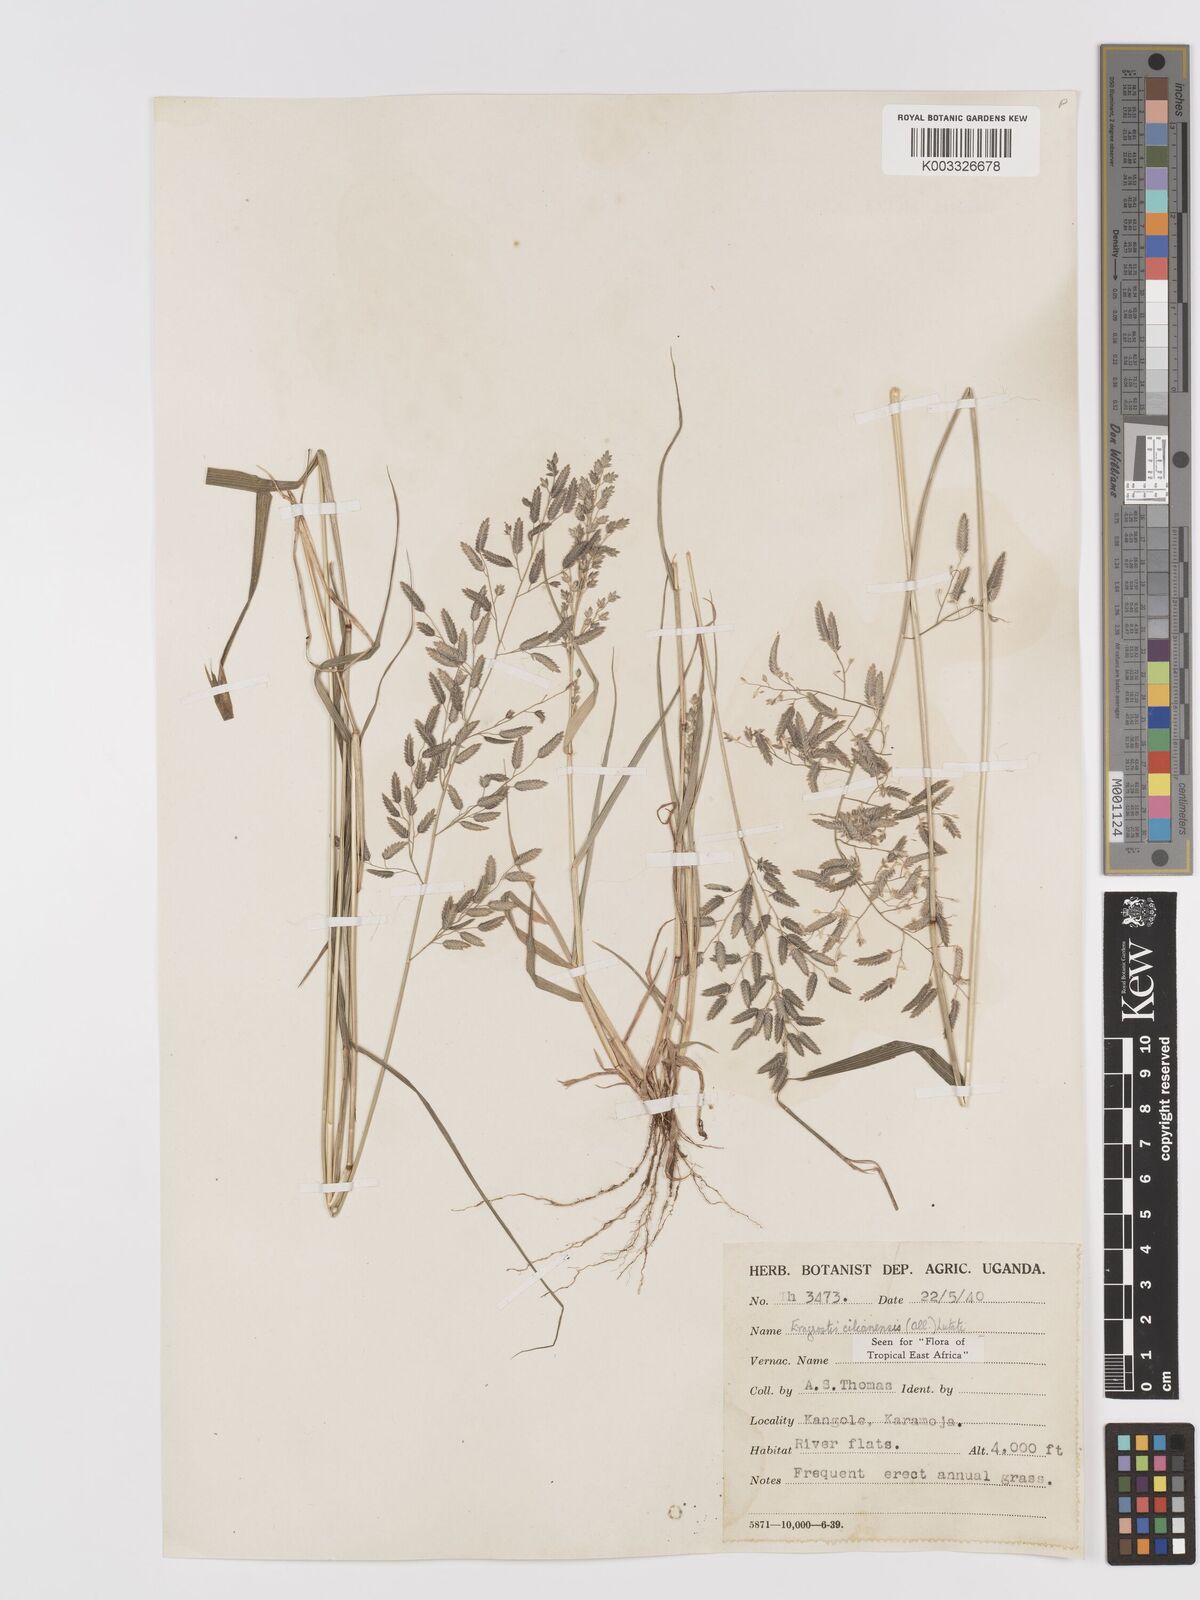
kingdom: Plantae
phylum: Tracheophyta
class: Liliopsida
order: Poales
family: Poaceae
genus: Eragrostis
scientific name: Eragrostis cilianensis
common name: Stinkgrass
